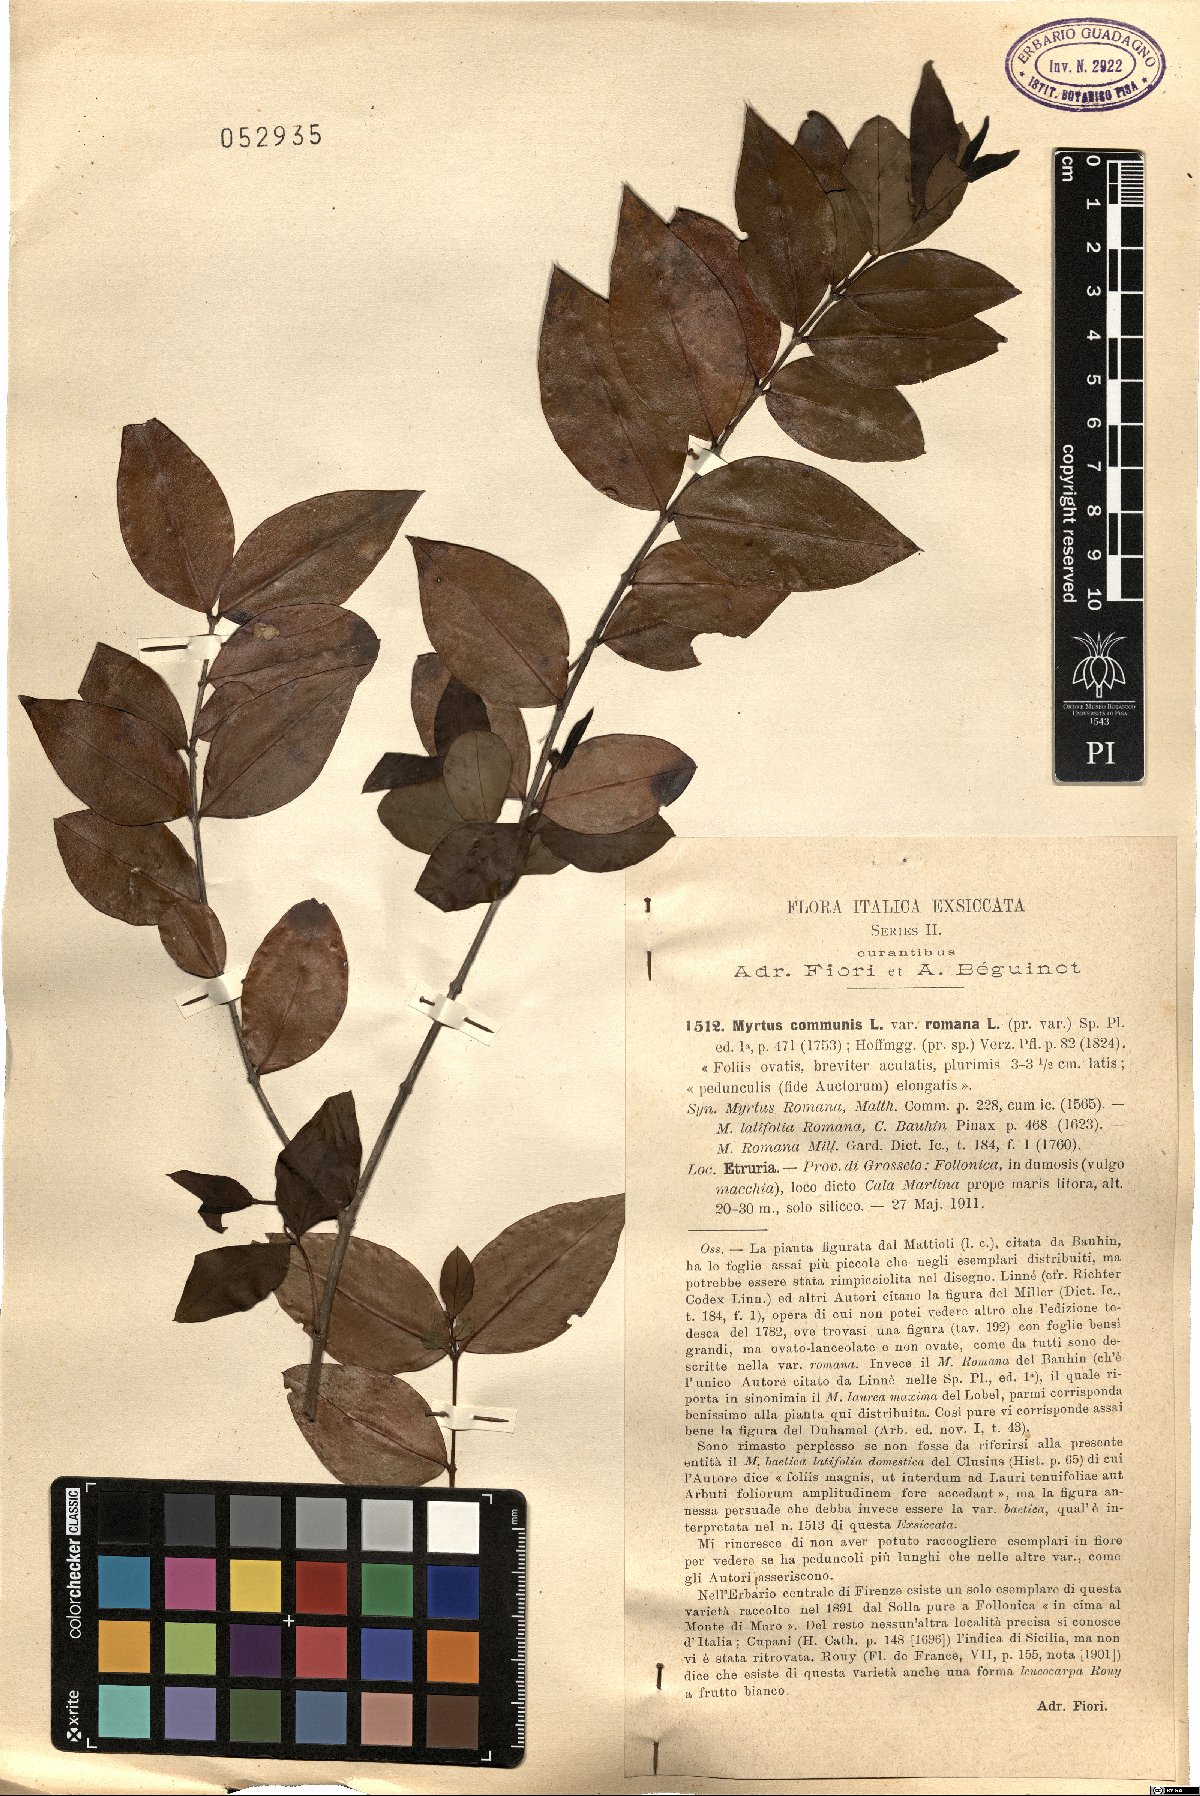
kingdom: Plantae
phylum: Tracheophyta
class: Magnoliopsida
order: Myrtales
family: Myrtaceae
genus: Myrtus
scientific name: Myrtus communis
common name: Myrtle
